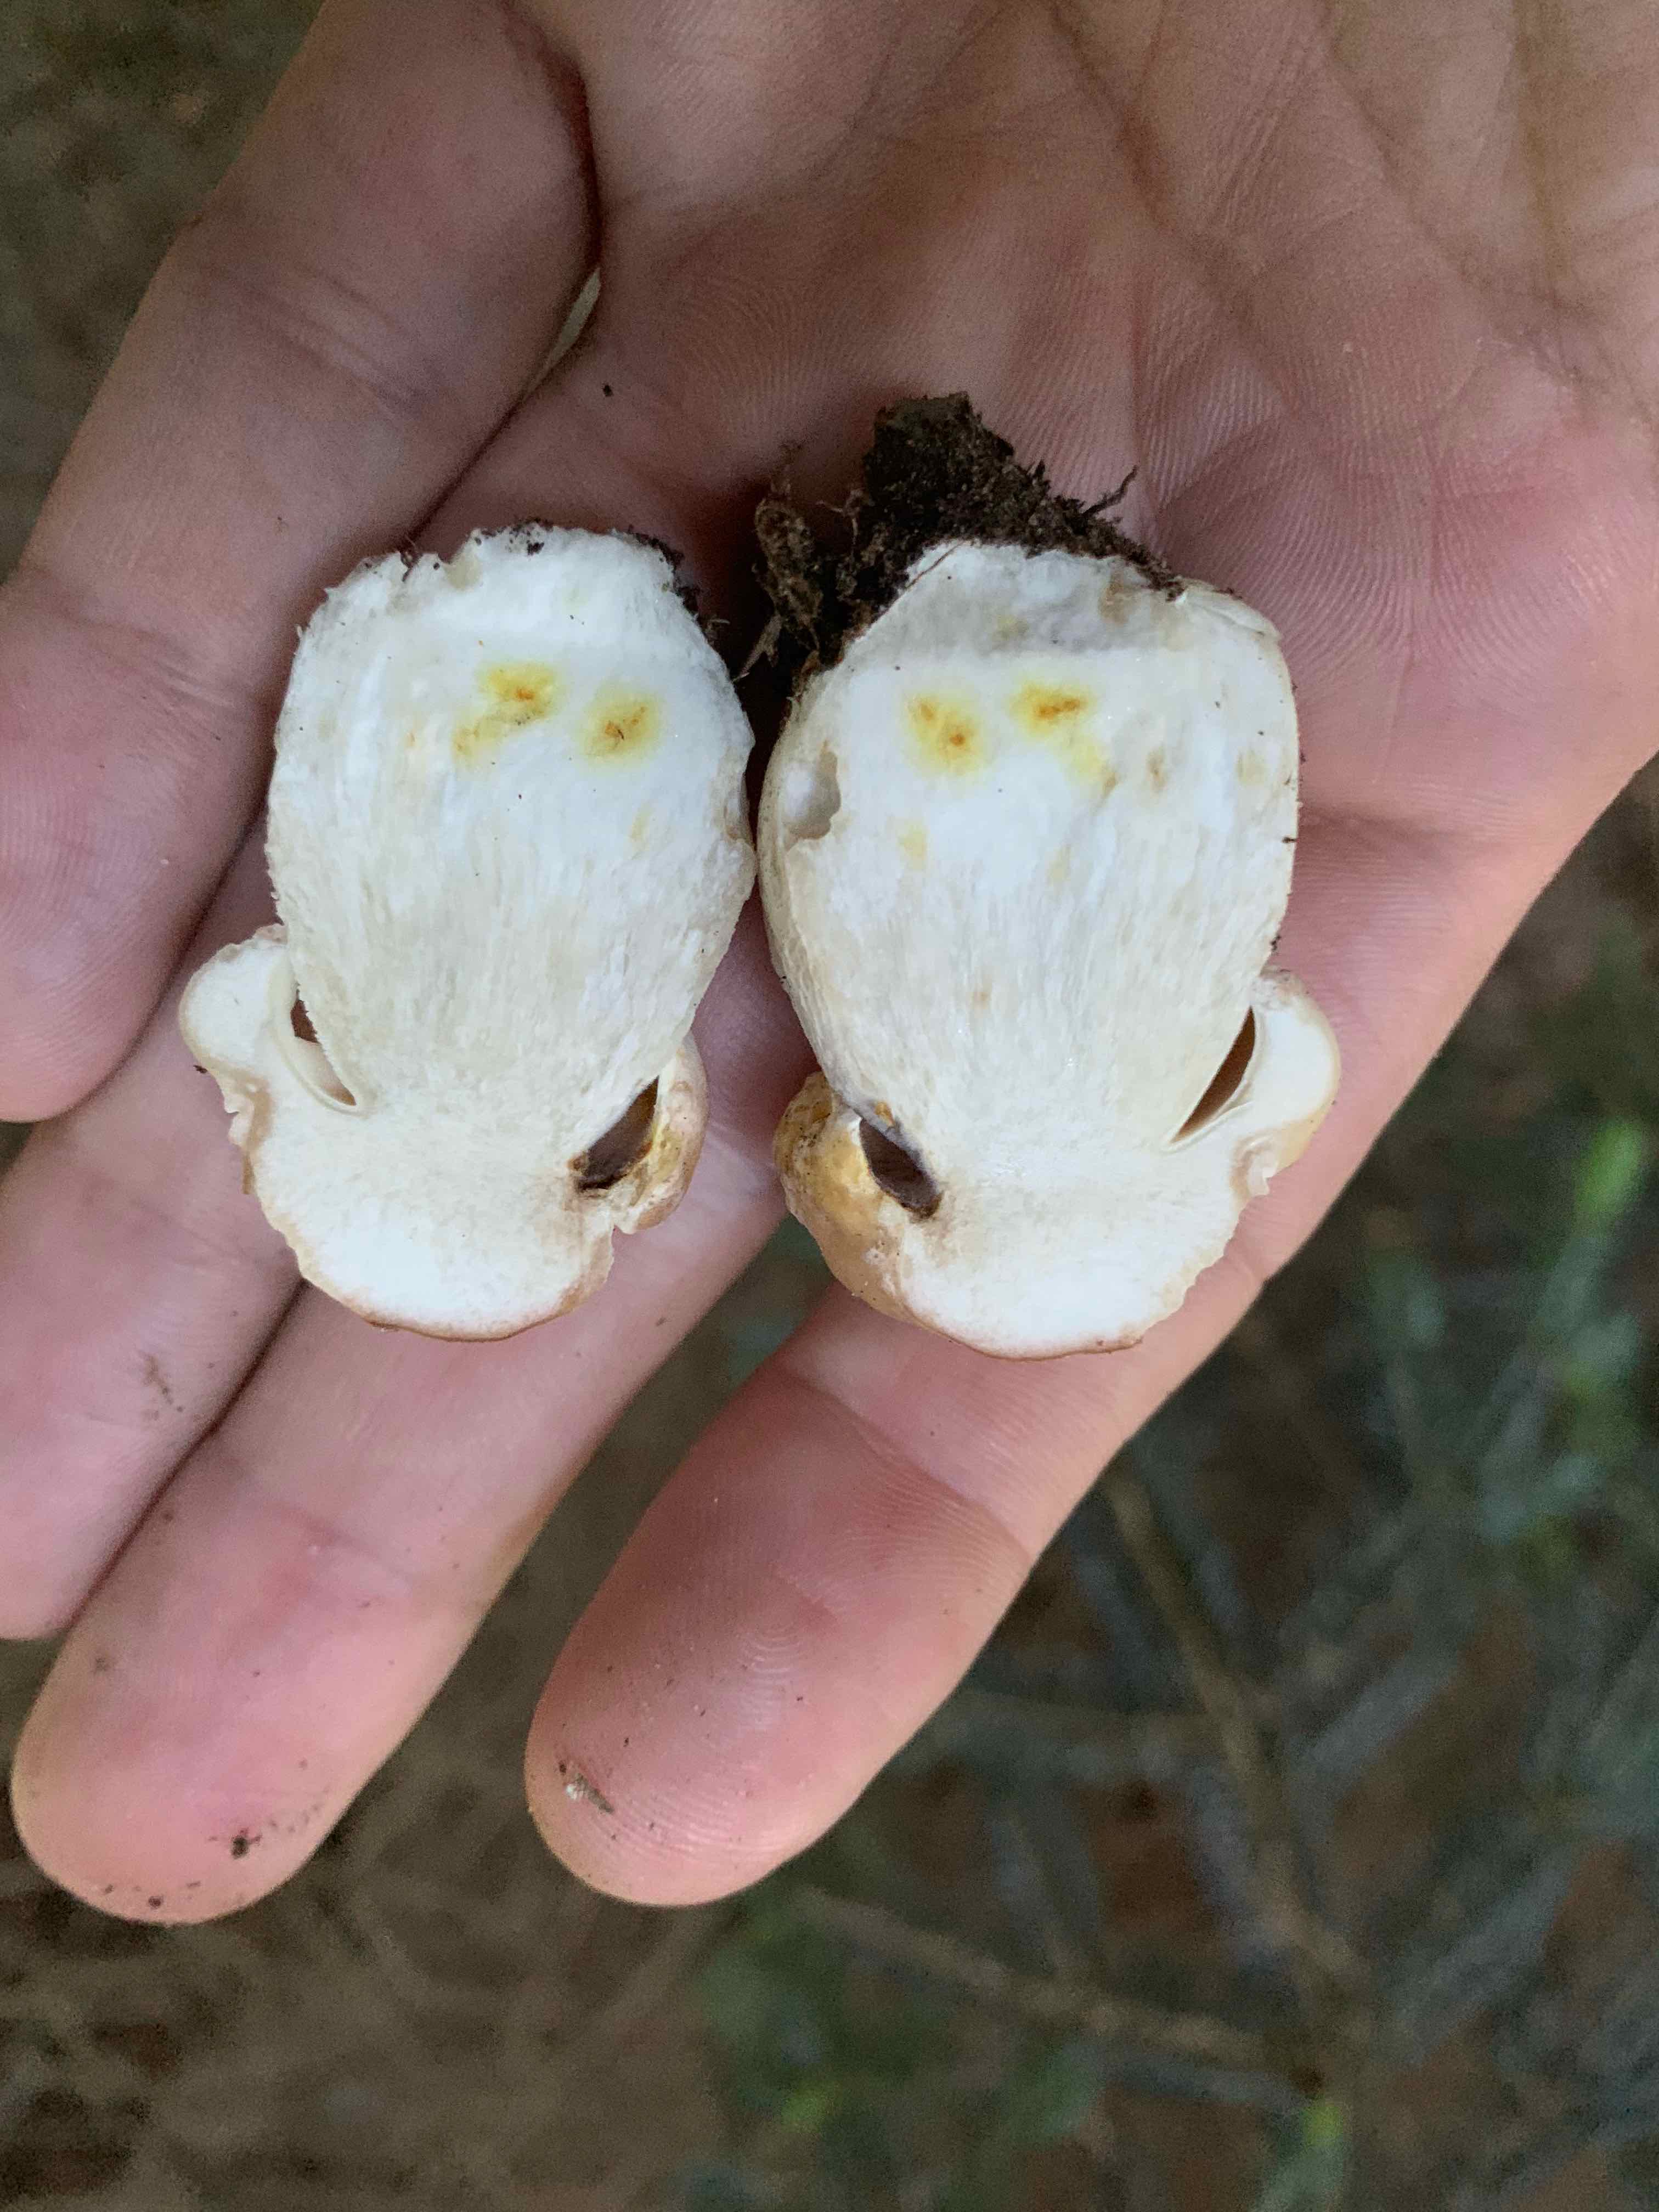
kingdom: Fungi
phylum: Basidiomycota
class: Agaricomycetes
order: Boletales
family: Boletaceae
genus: Boletus
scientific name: Boletus edulis
